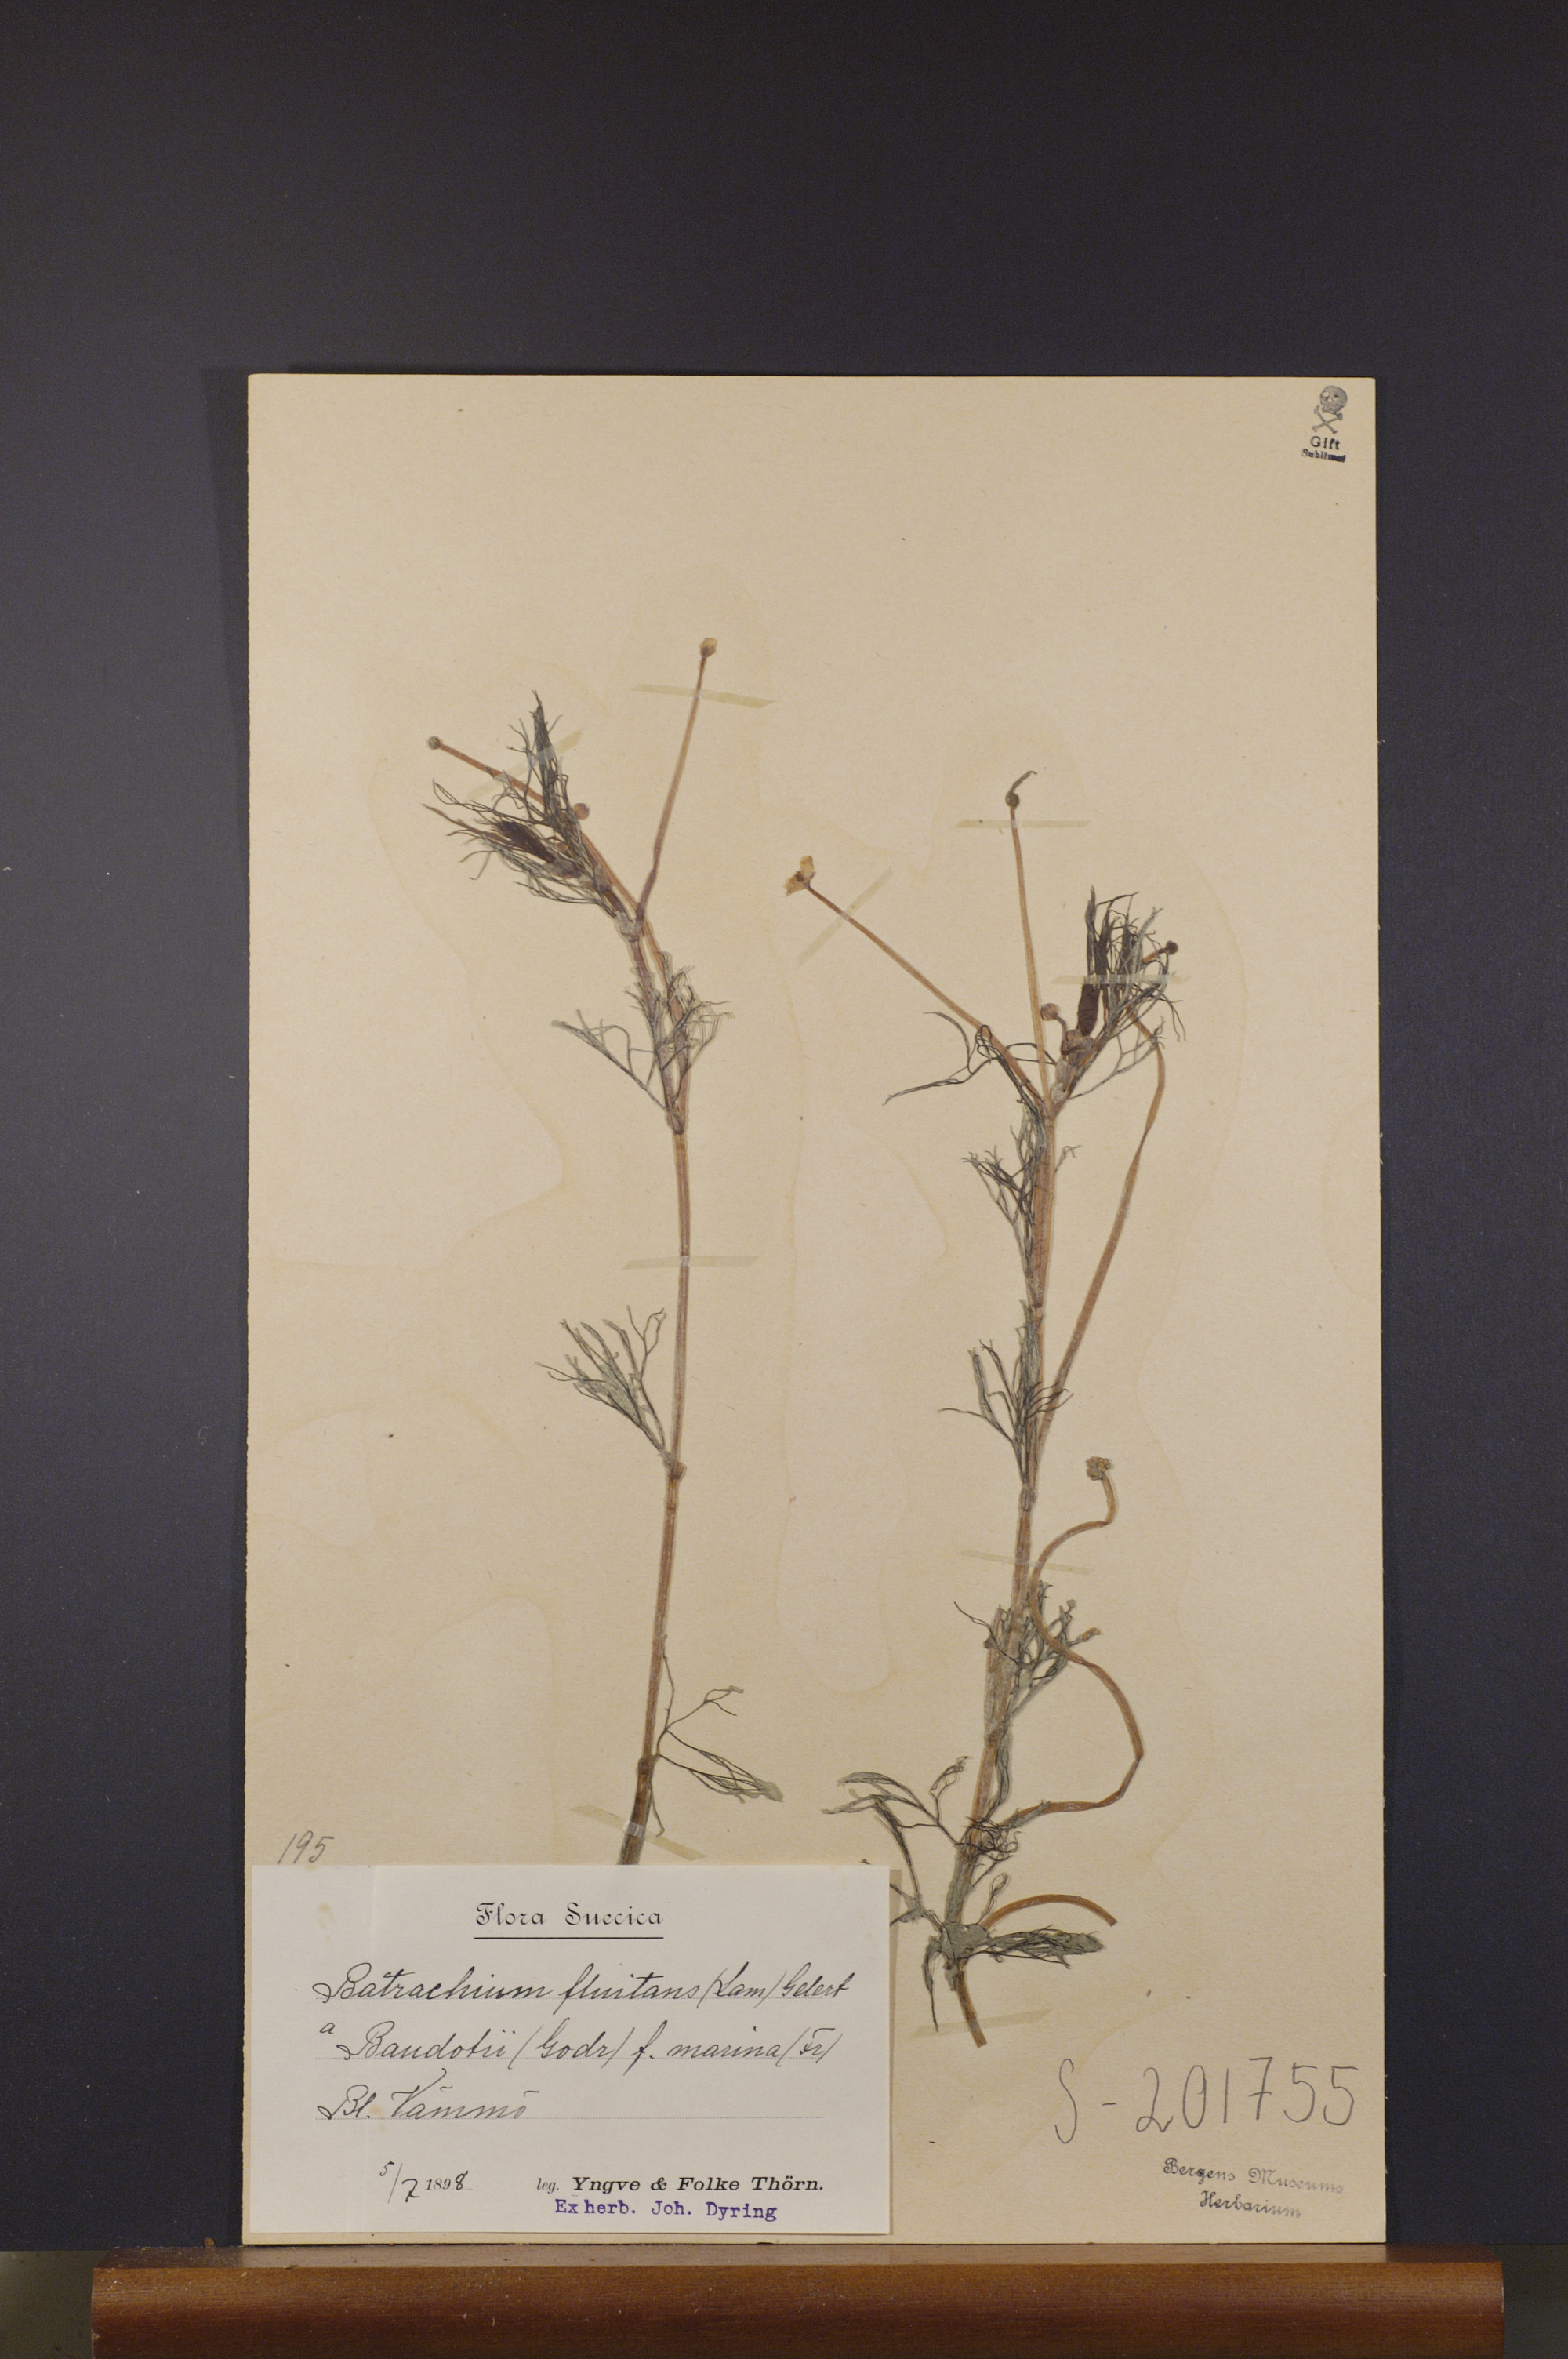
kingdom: Plantae
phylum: Tracheophyta
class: Magnoliopsida
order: Ranunculales
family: Ranunculaceae
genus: Ranunculus
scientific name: Ranunculus peltatus
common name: Pond water-crowfoot
